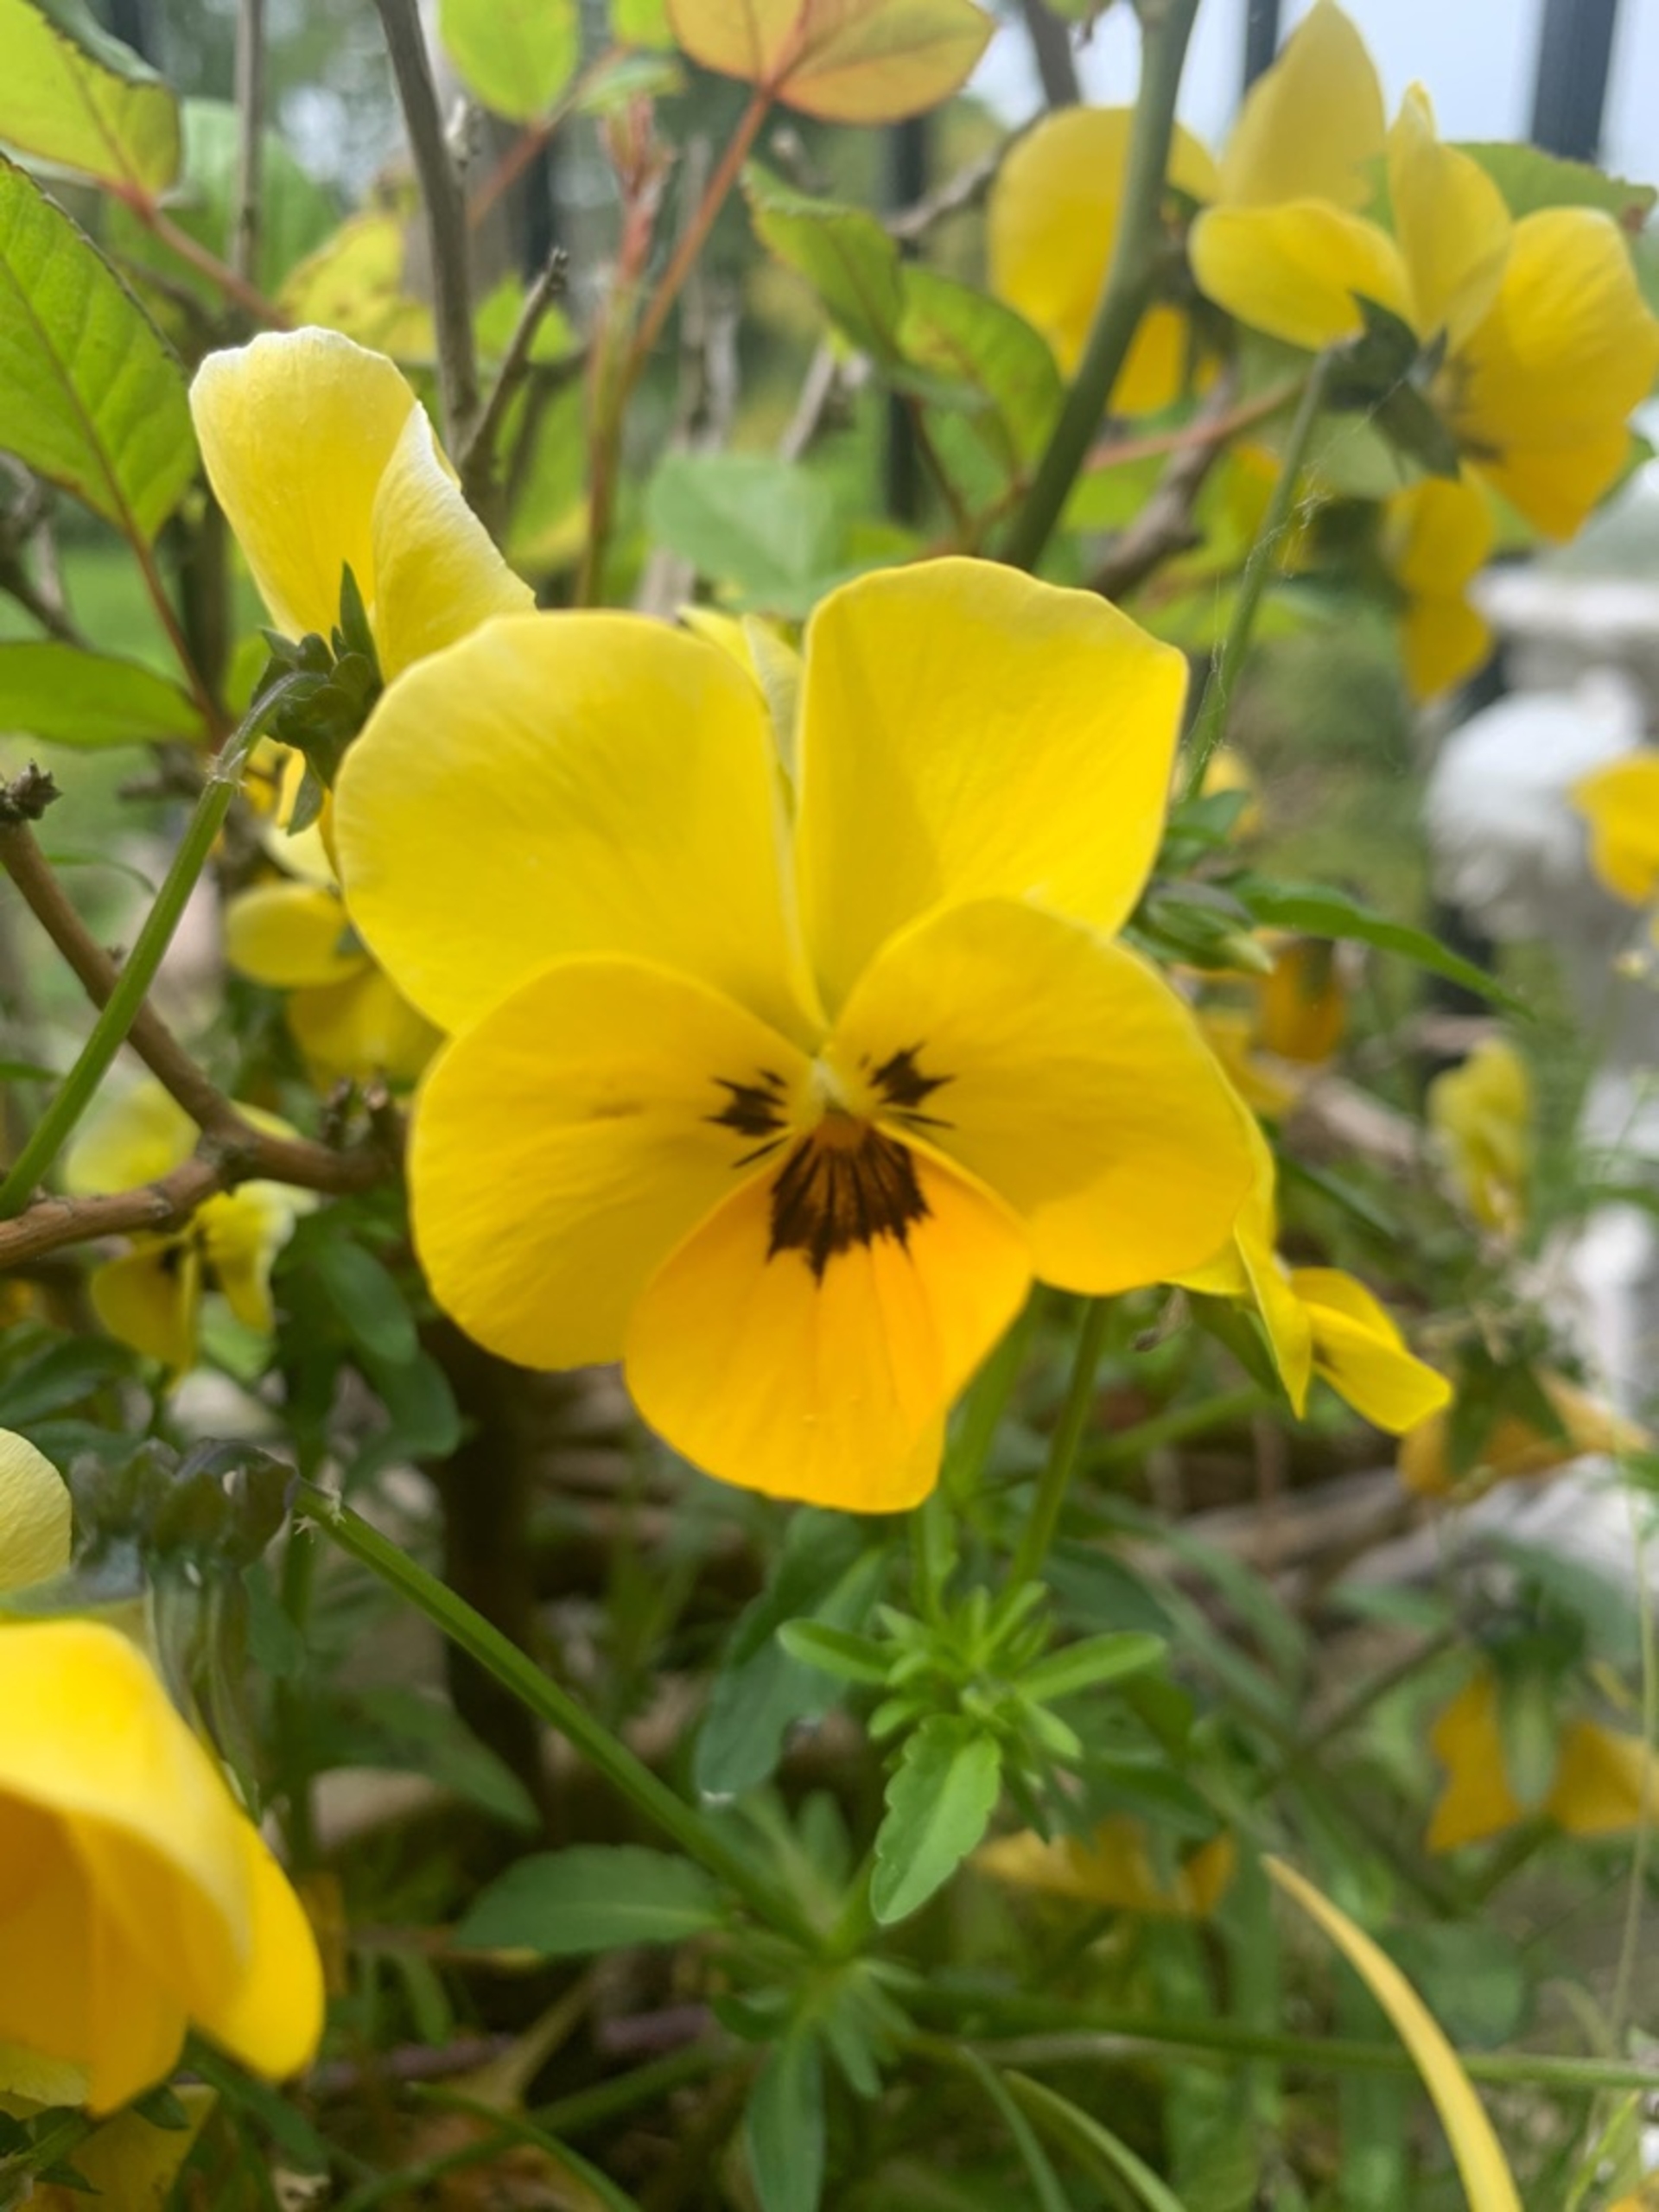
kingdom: Plantae
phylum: Tracheophyta
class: Magnoliopsida
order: Malpighiales
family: Violaceae
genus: Viola
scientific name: Viola wittrockiana
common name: Have-stedmoderblomst
